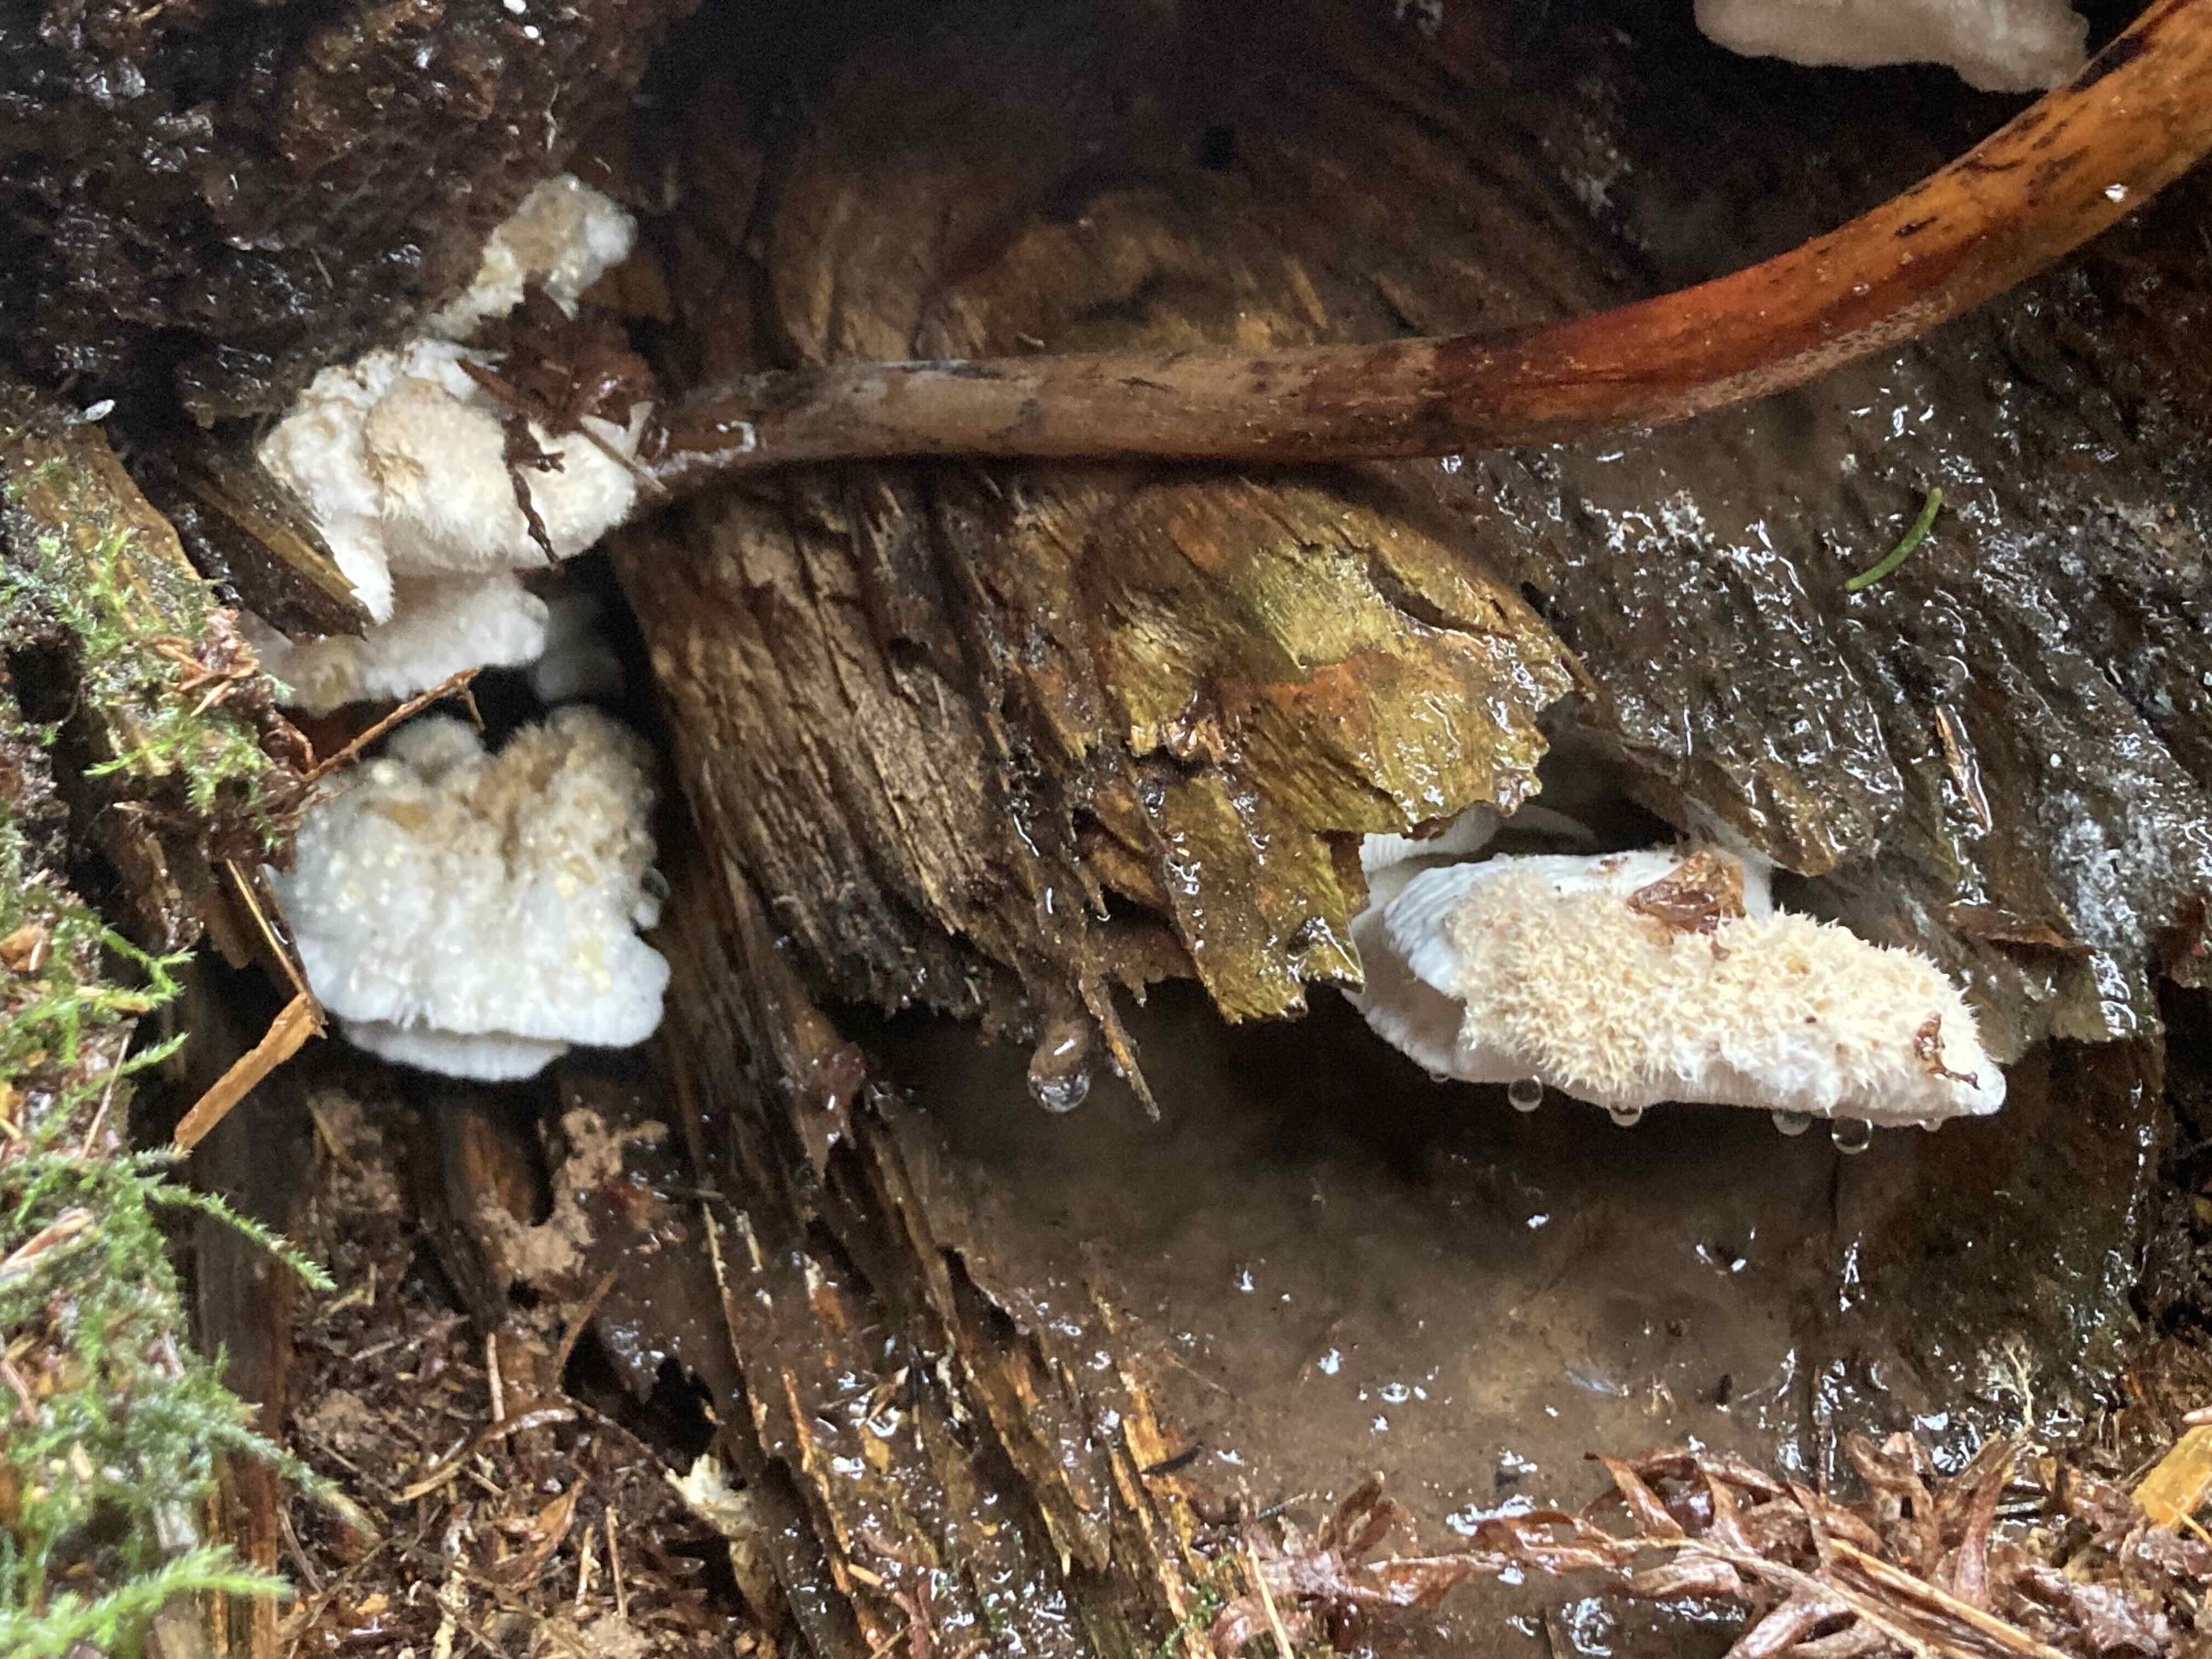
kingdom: Fungi
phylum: Basidiomycota
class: Agaricomycetes
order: Polyporales
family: Dacryobolaceae
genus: Postia
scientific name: Postia ptychogaster
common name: støvende kødporesvamp
